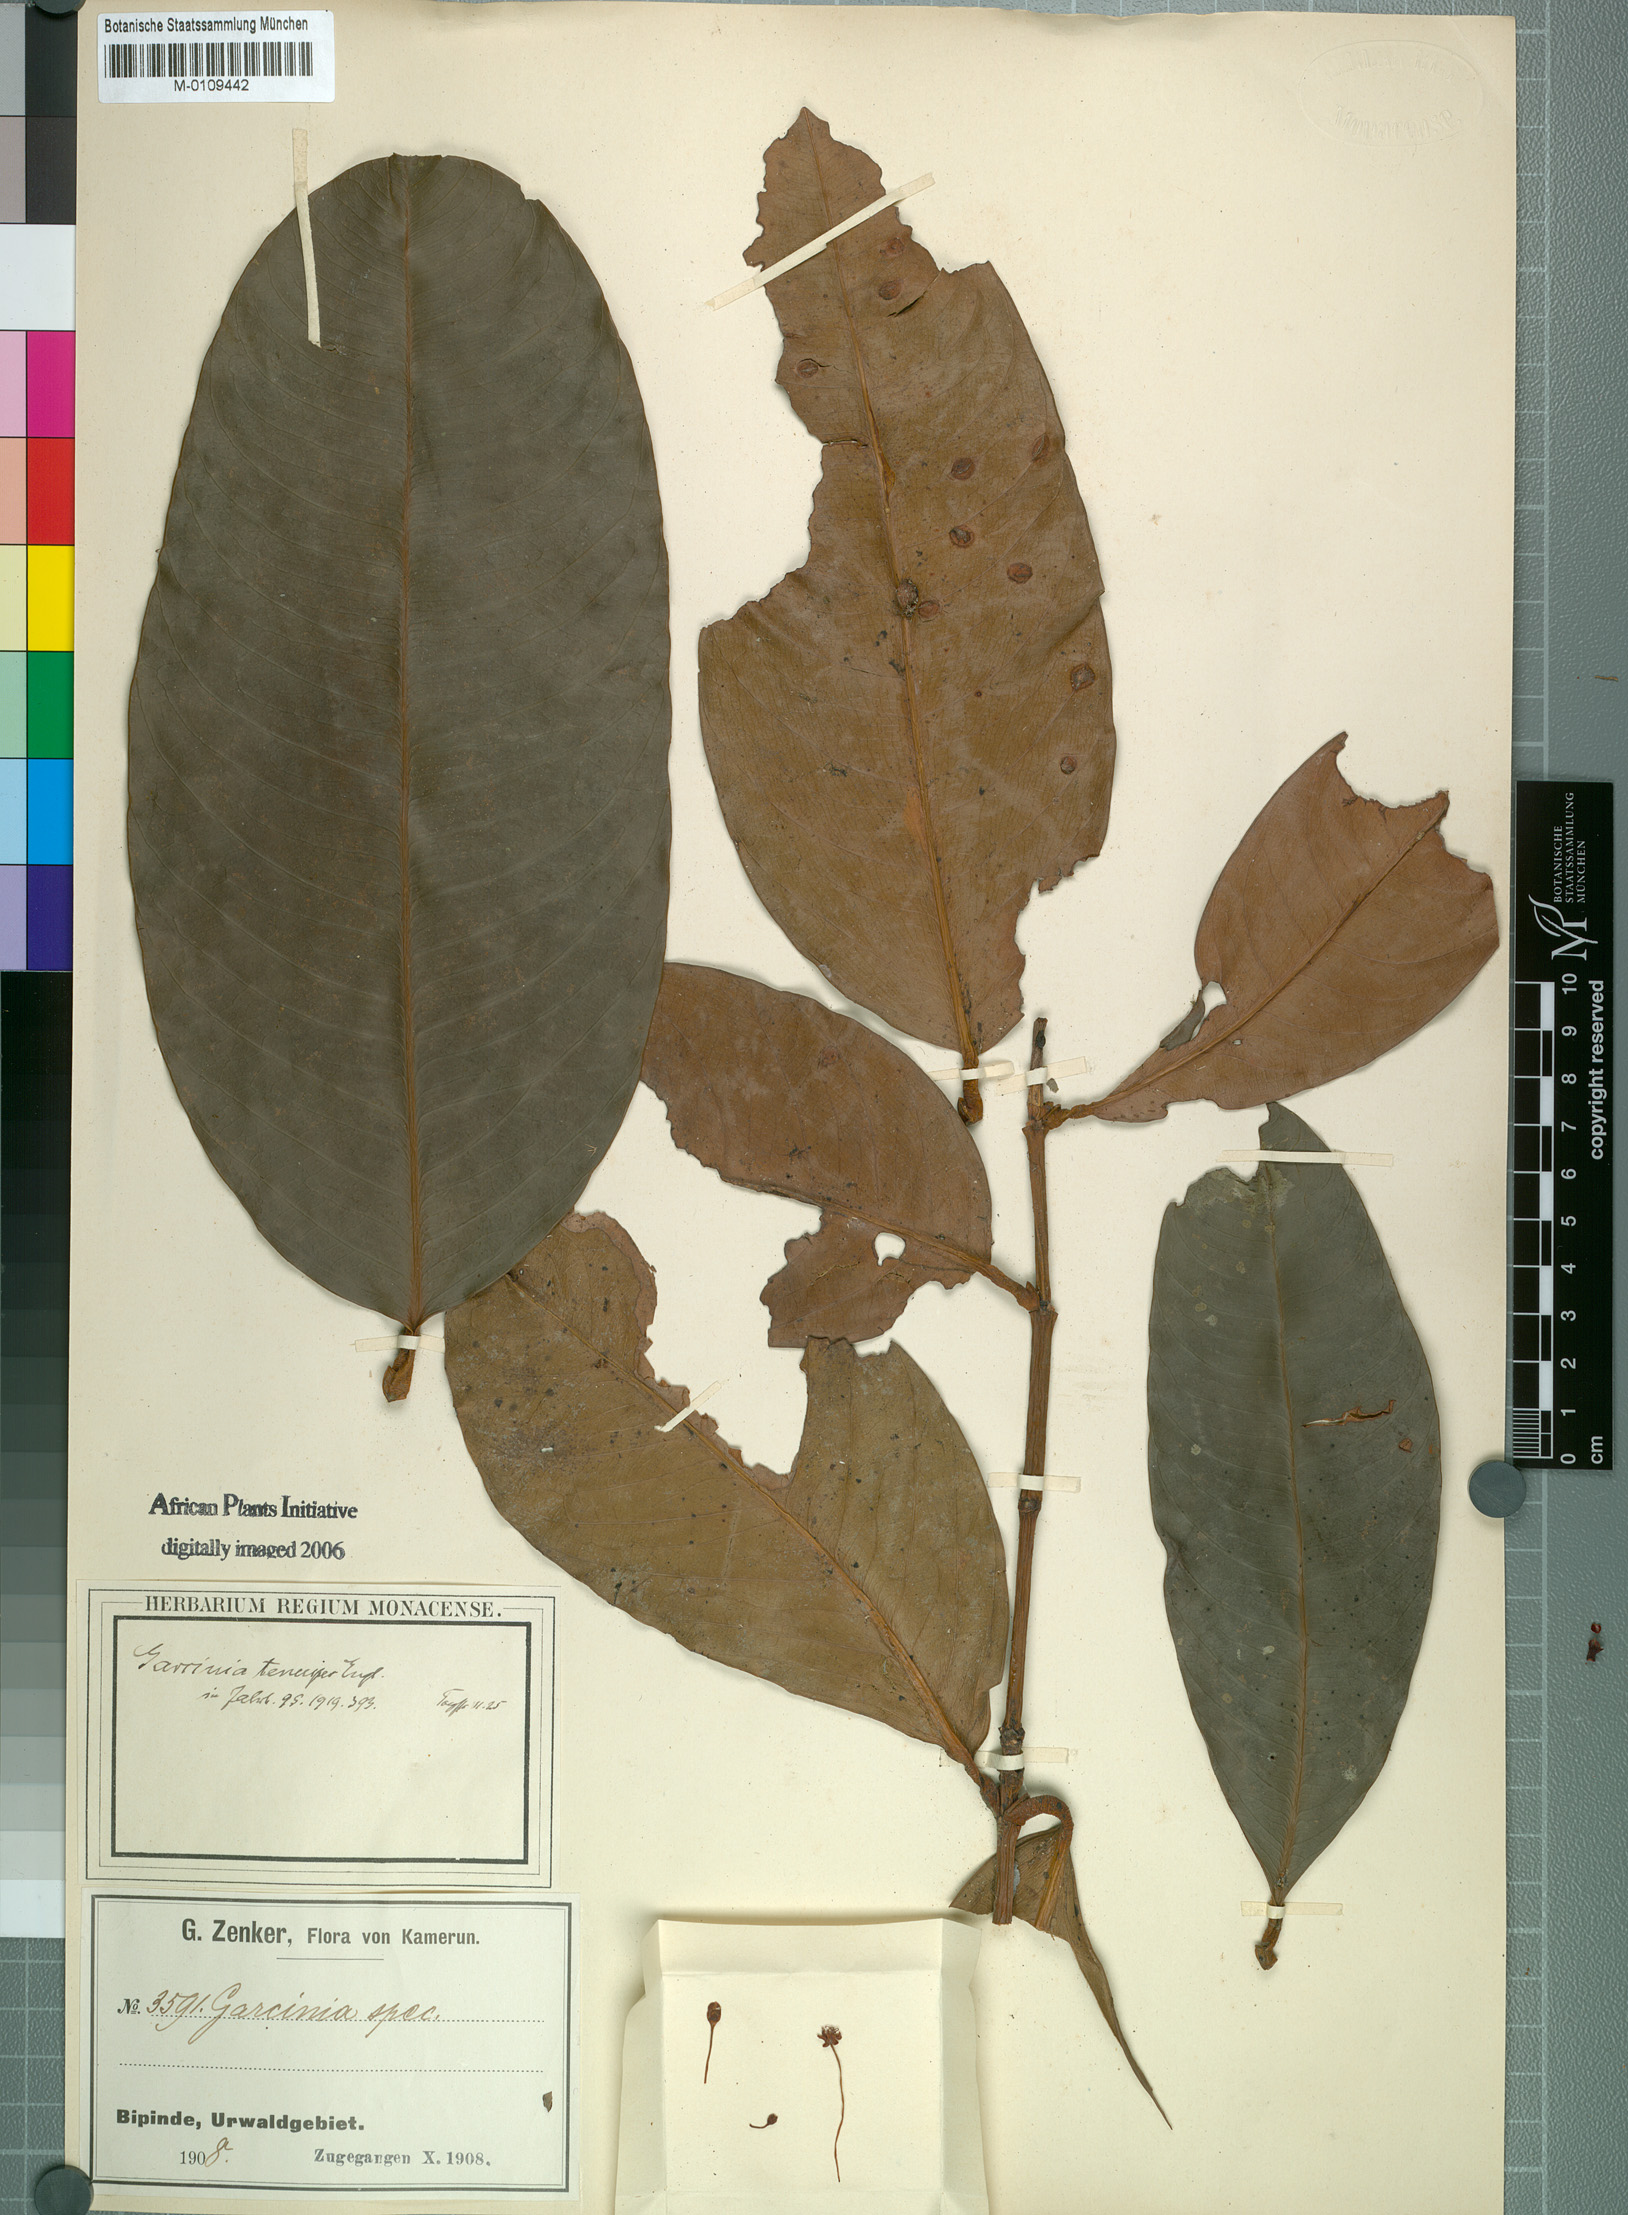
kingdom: Plantae
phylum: Tracheophyta
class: Magnoliopsida
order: Malpighiales
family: Clusiaceae
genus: Garcinia
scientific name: Garcinia smeathmannii
